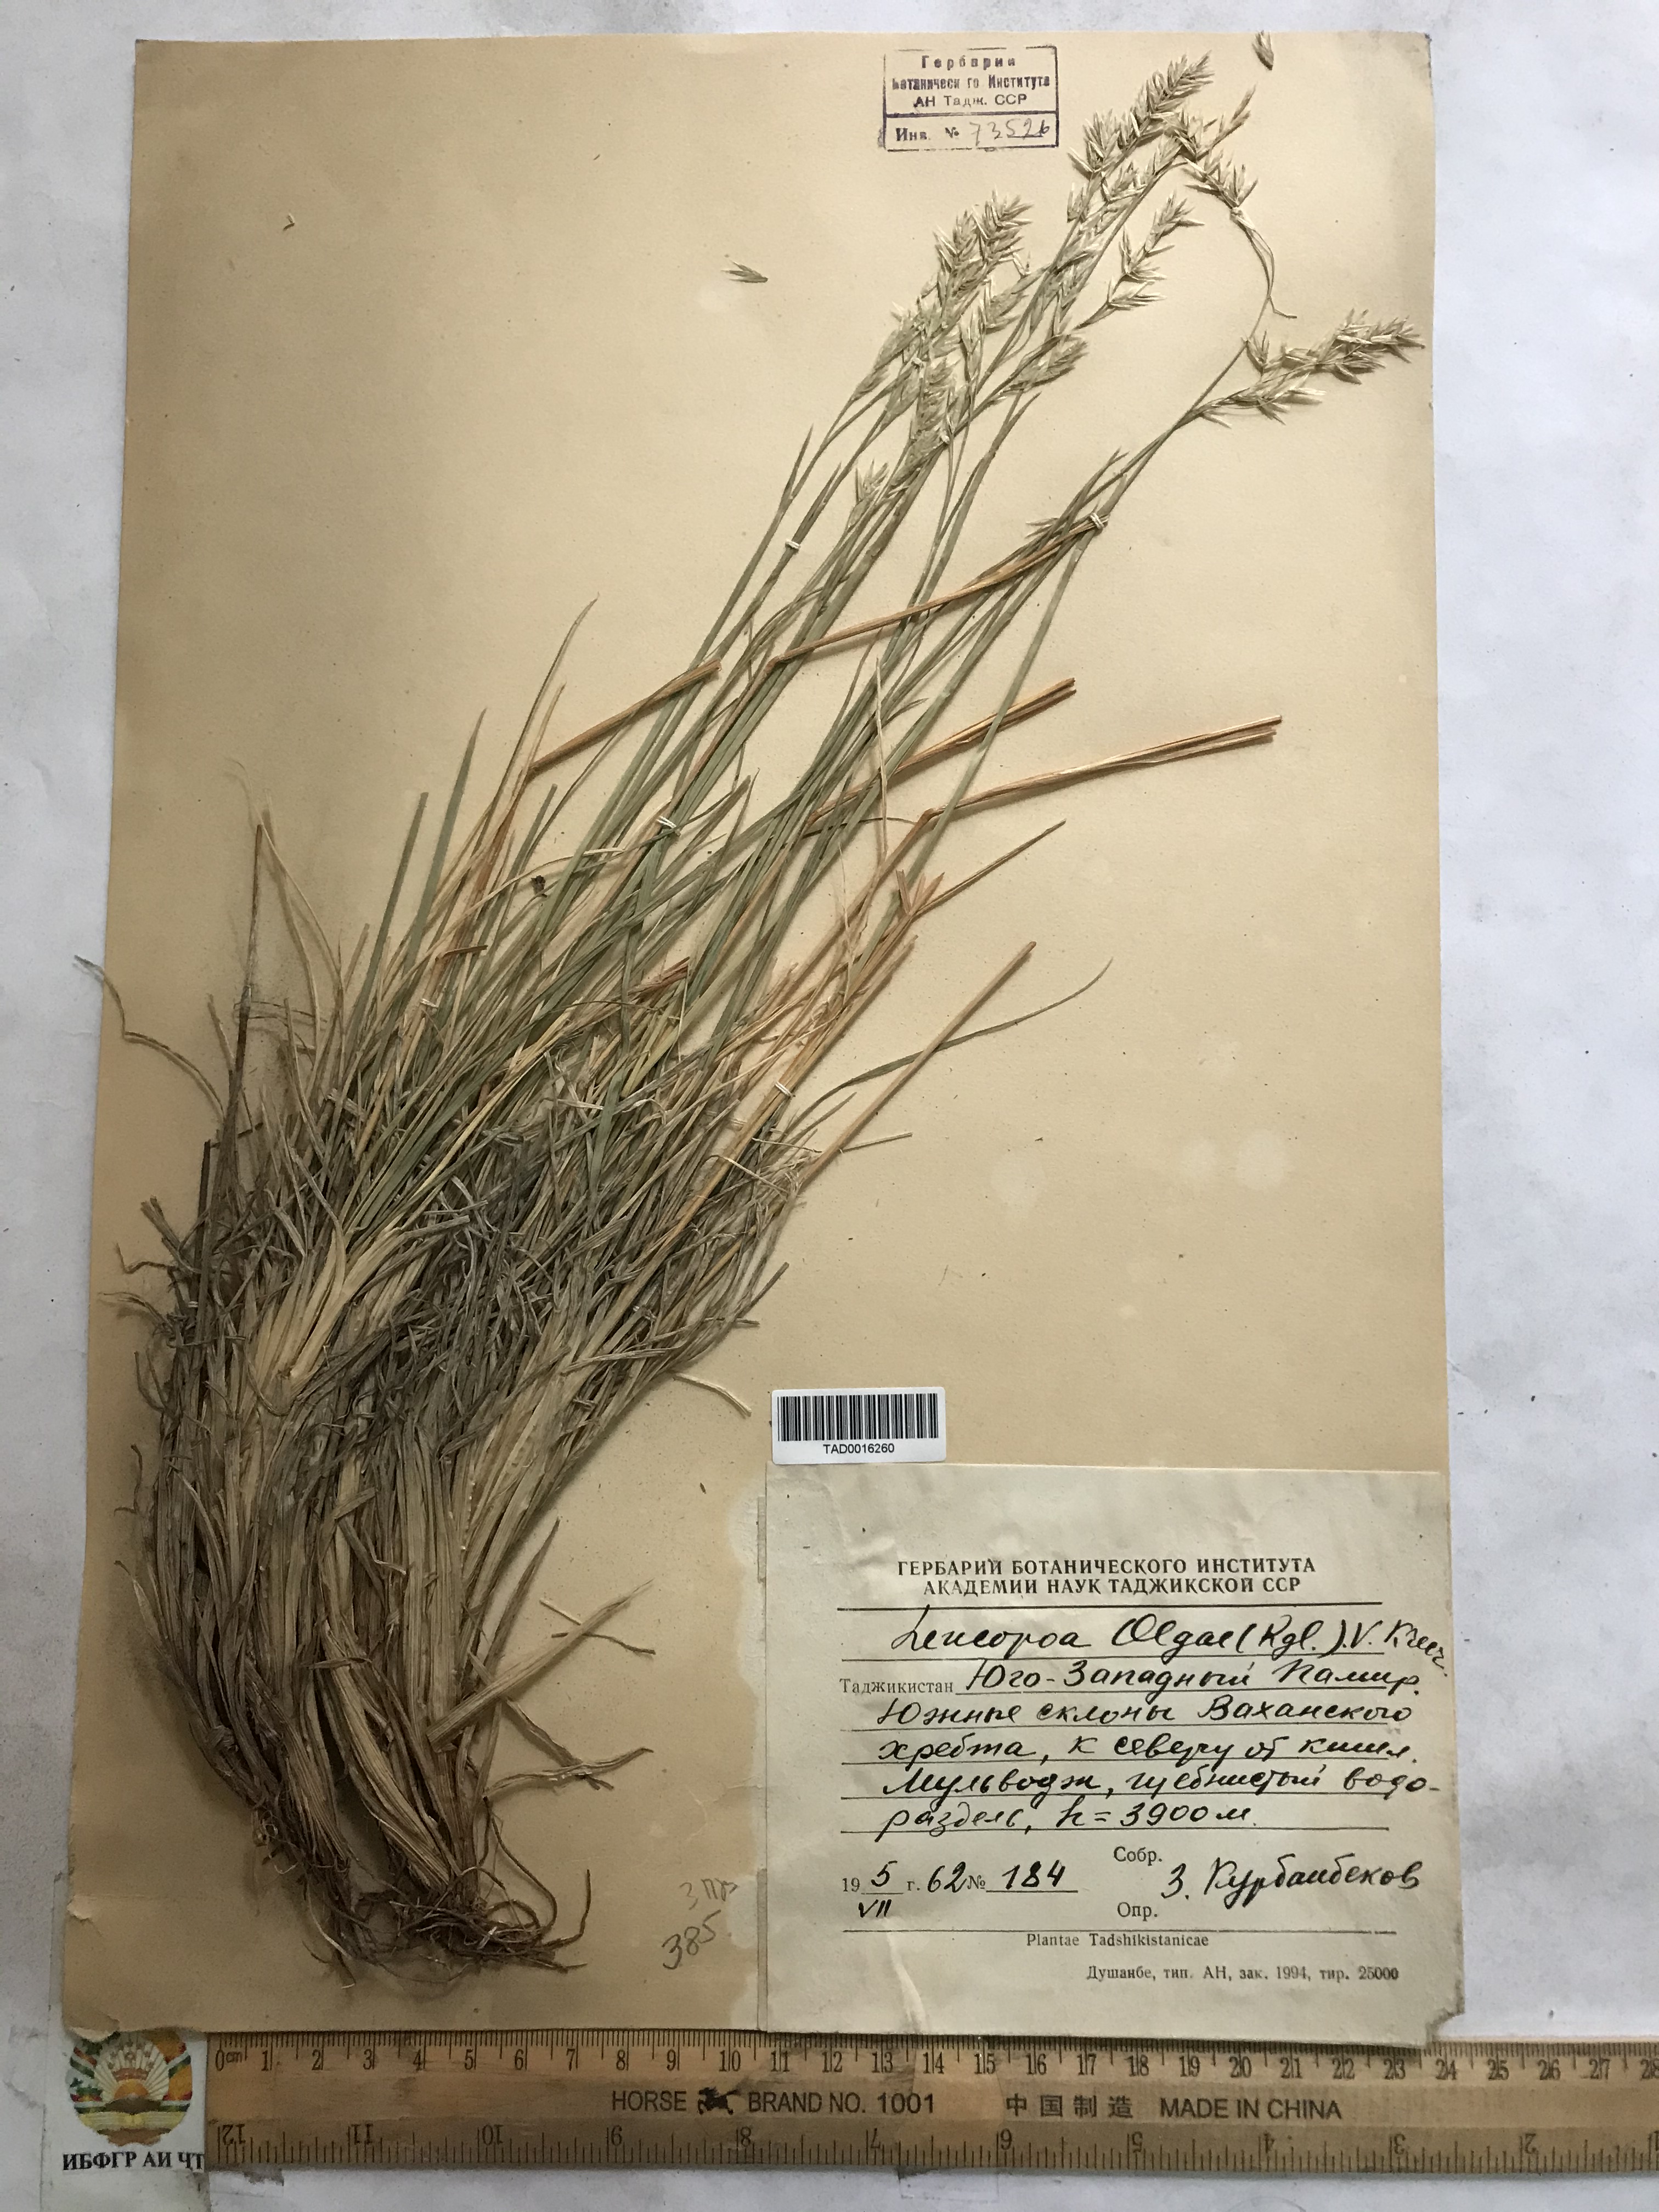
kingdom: Plantae
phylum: Tracheophyta
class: Liliopsida
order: Poales
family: Poaceae
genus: Festuca
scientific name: Festuca
